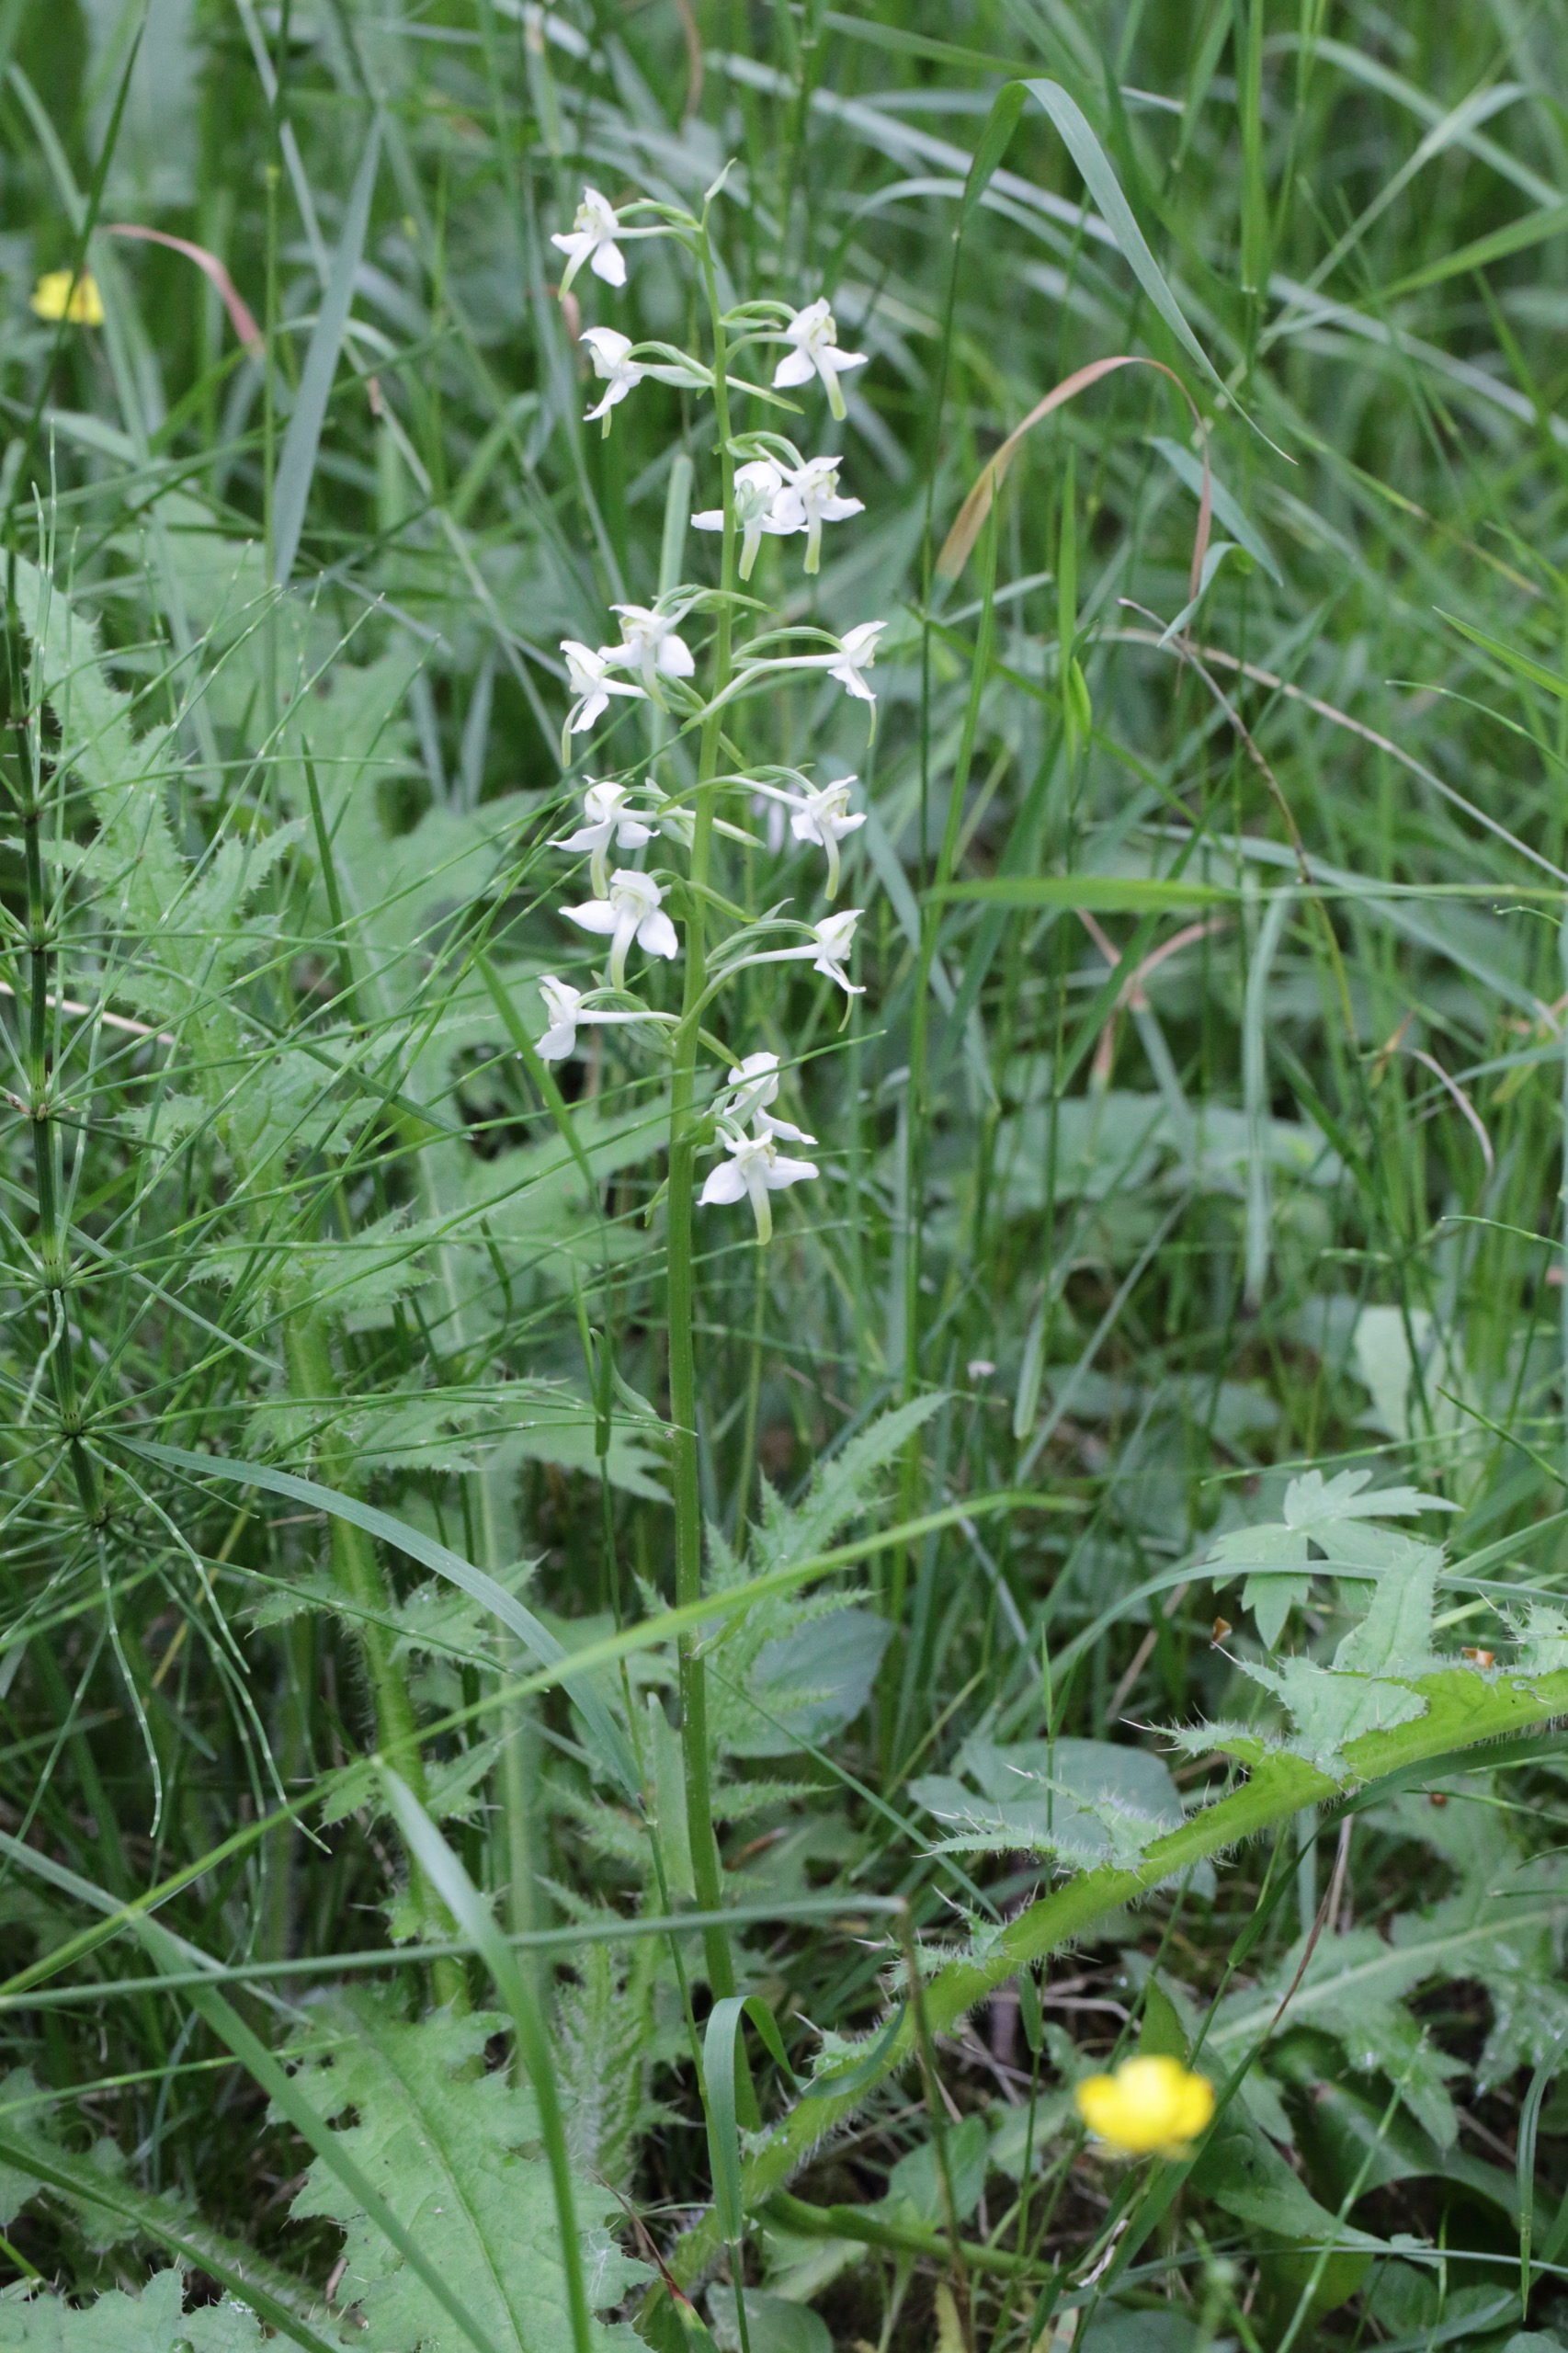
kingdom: Plantae
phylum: Tracheophyta
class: Liliopsida
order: Asparagales
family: Orchidaceae
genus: Platanthera
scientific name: Platanthera chlorantha
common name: Skov-gøgelilje
